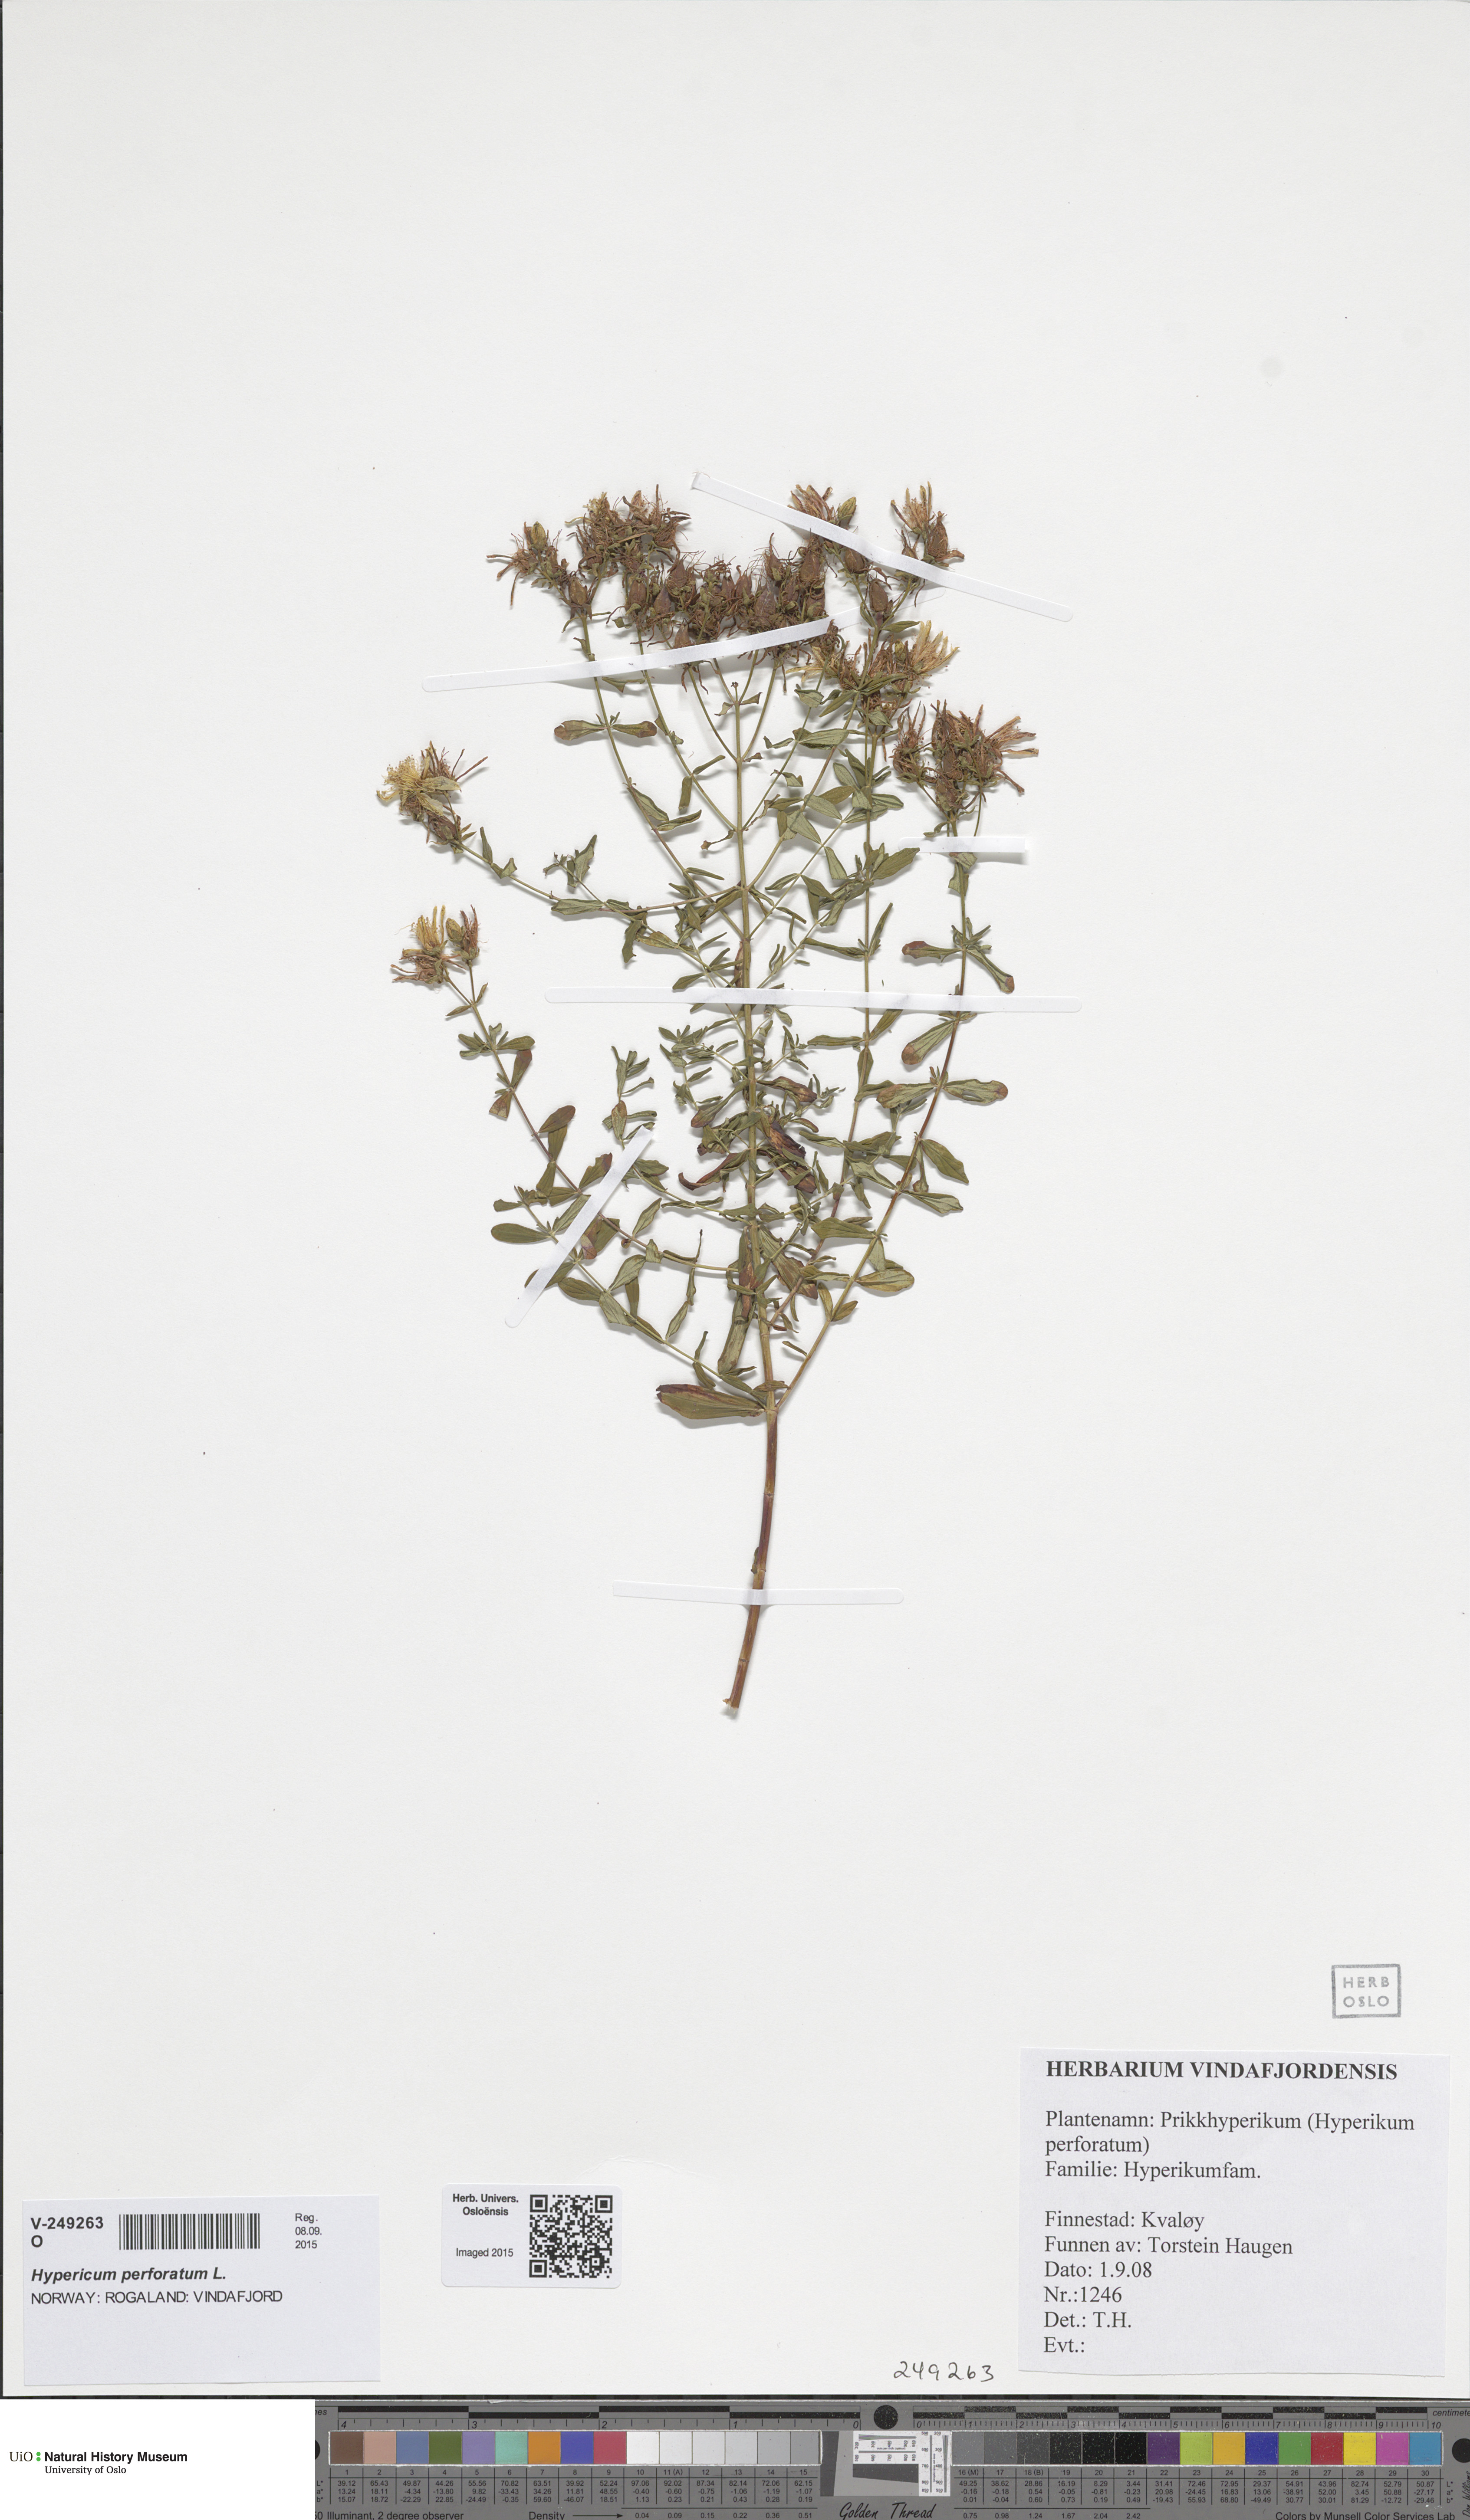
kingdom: Plantae
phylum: Tracheophyta
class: Magnoliopsida
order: Malpighiales
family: Hypericaceae
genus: Hypericum
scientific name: Hypericum perforatum
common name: Common st. johnswort
